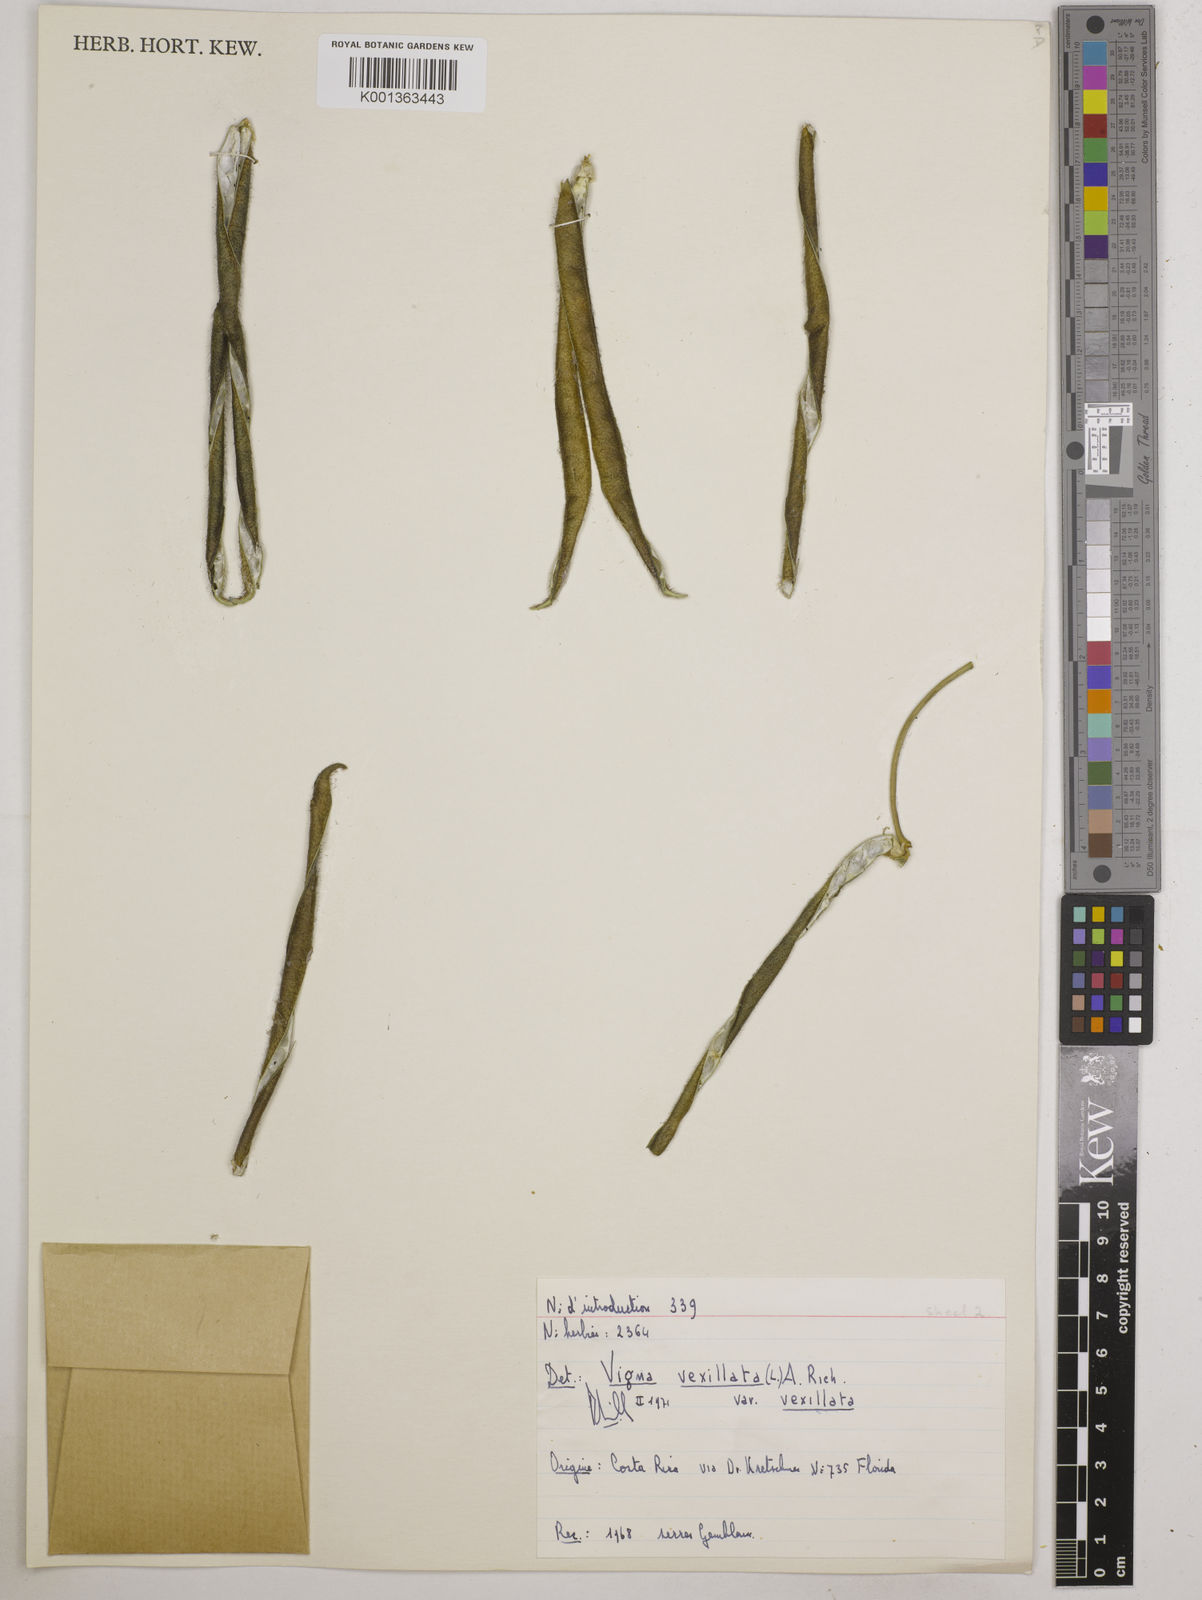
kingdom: Plantae
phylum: Tracheophyta
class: Magnoliopsida
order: Fabales
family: Fabaceae
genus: Vigna
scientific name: Vigna vexillata
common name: Zombi pea
